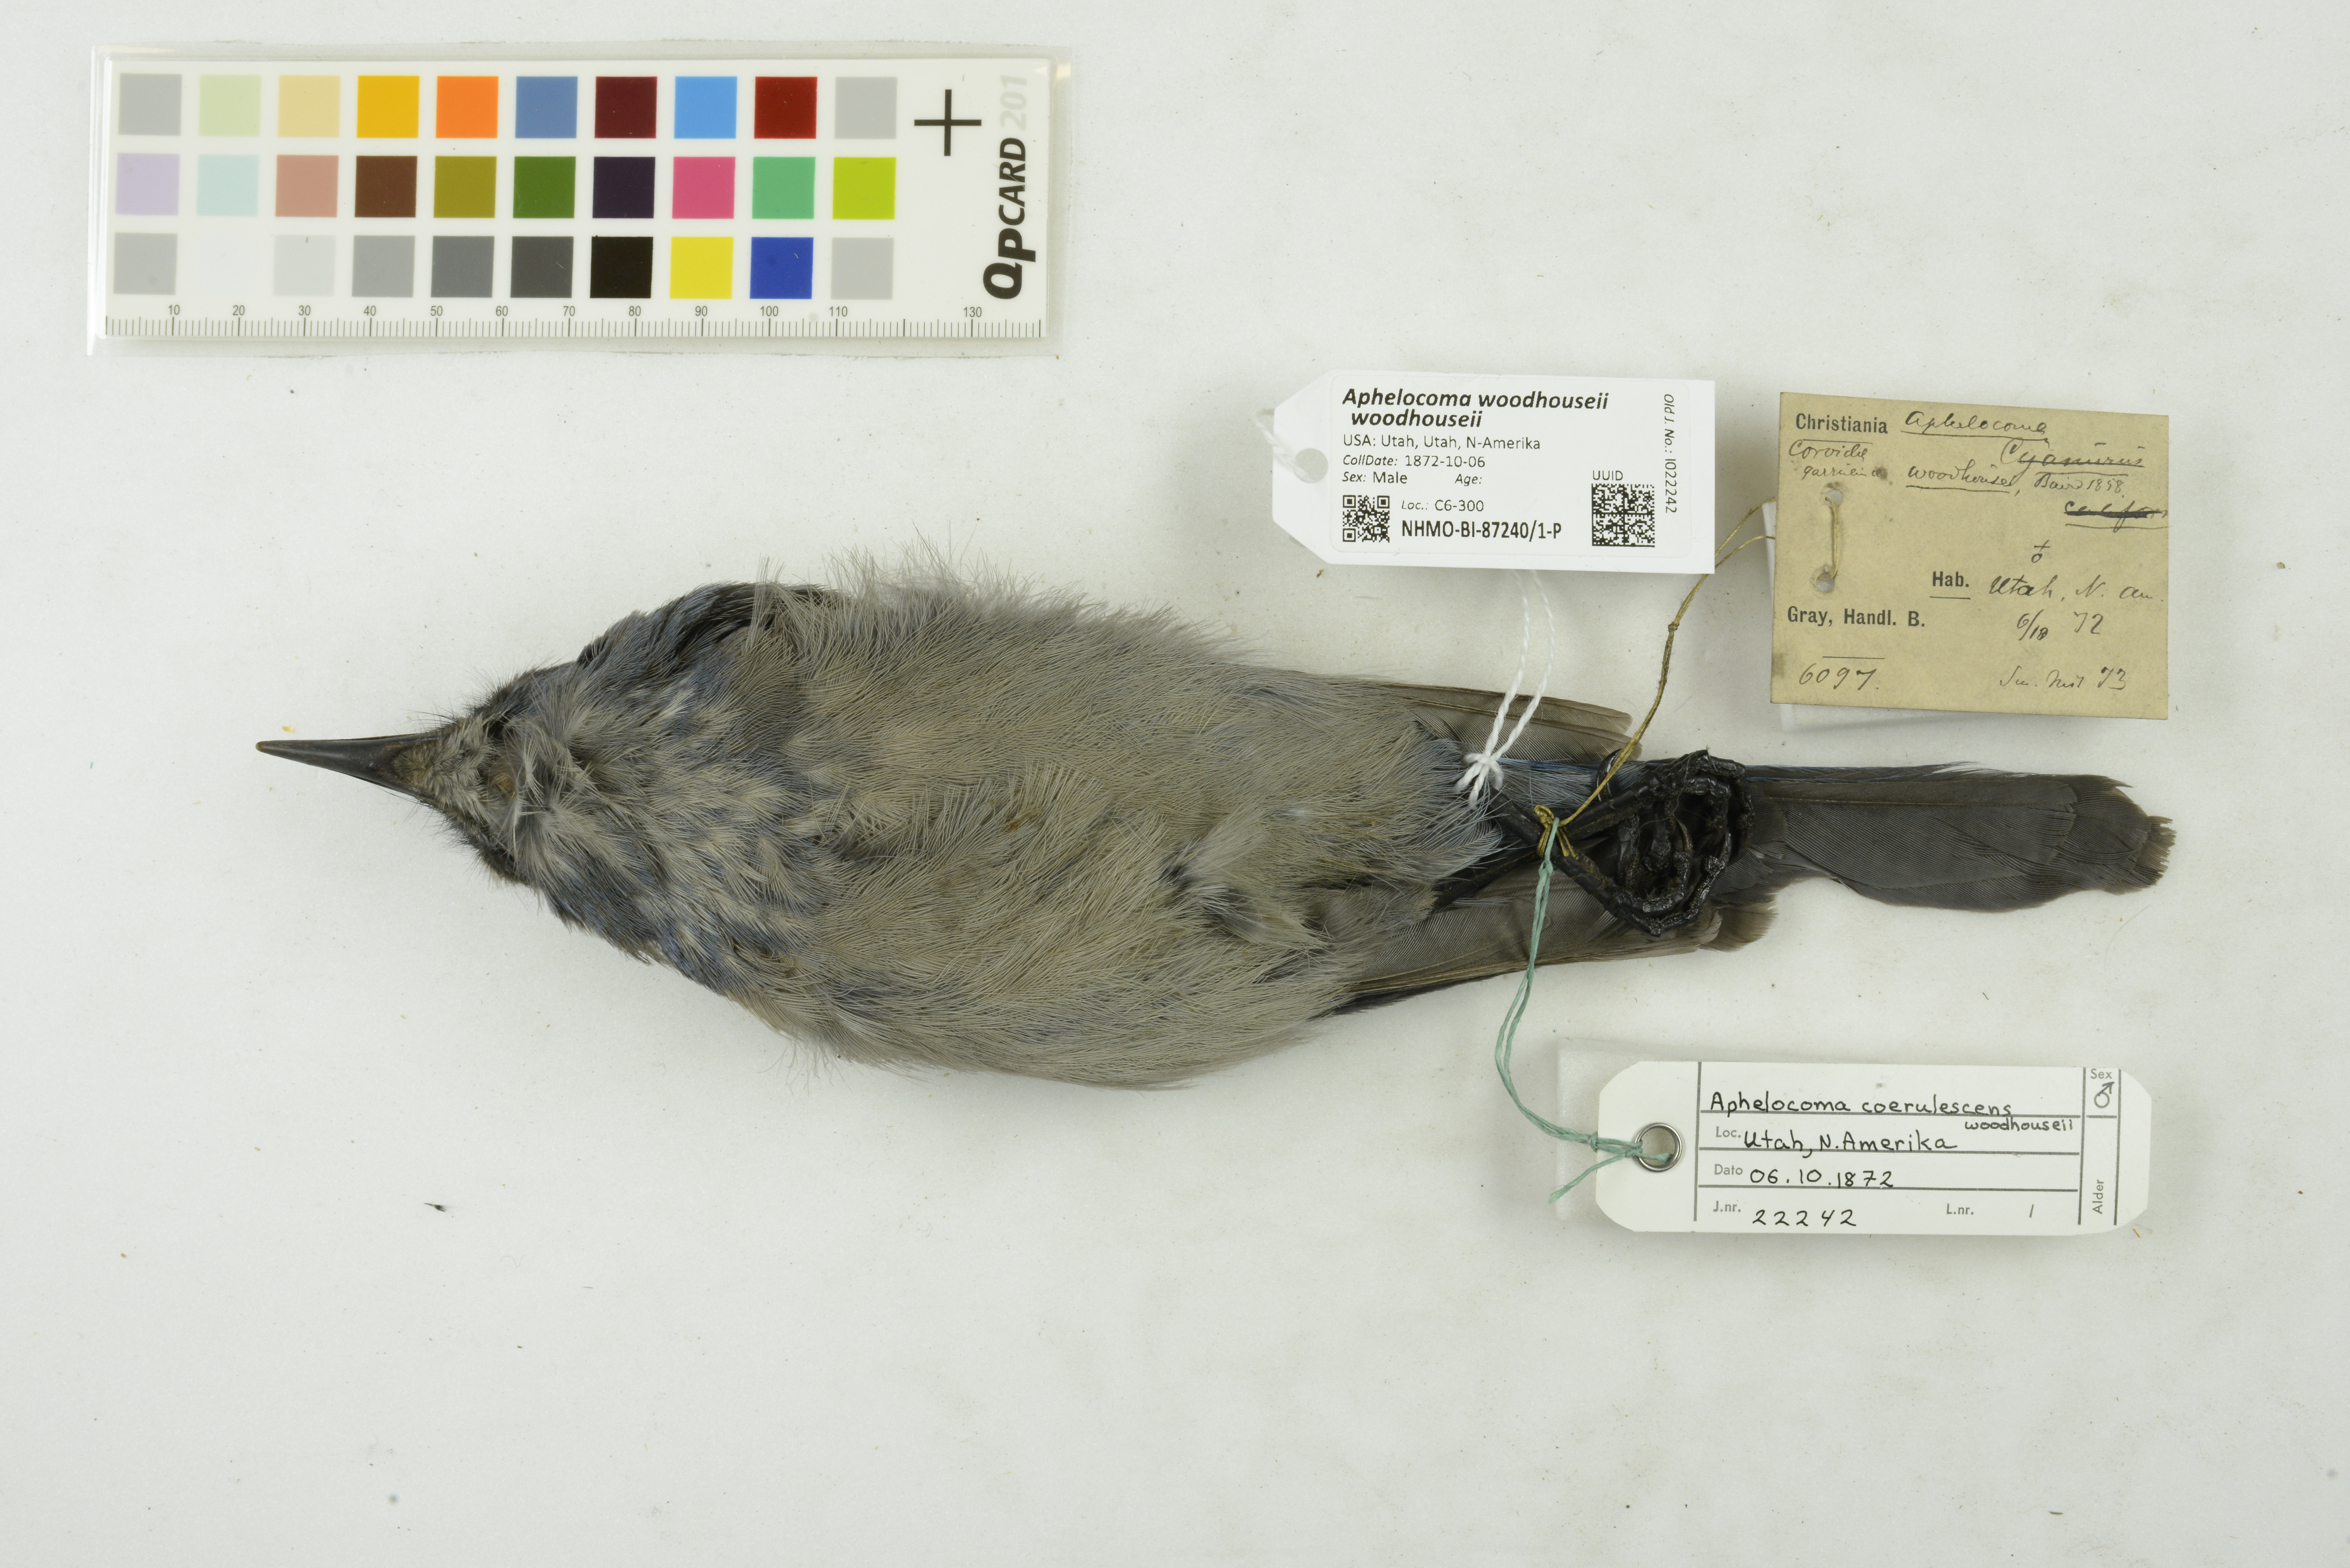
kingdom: Animalia
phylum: Chordata
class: Aves
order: Passeriformes
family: Corvidae
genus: Aphelocoma
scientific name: Aphelocoma woodhouseii
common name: Woodhouse's scrub-jay
